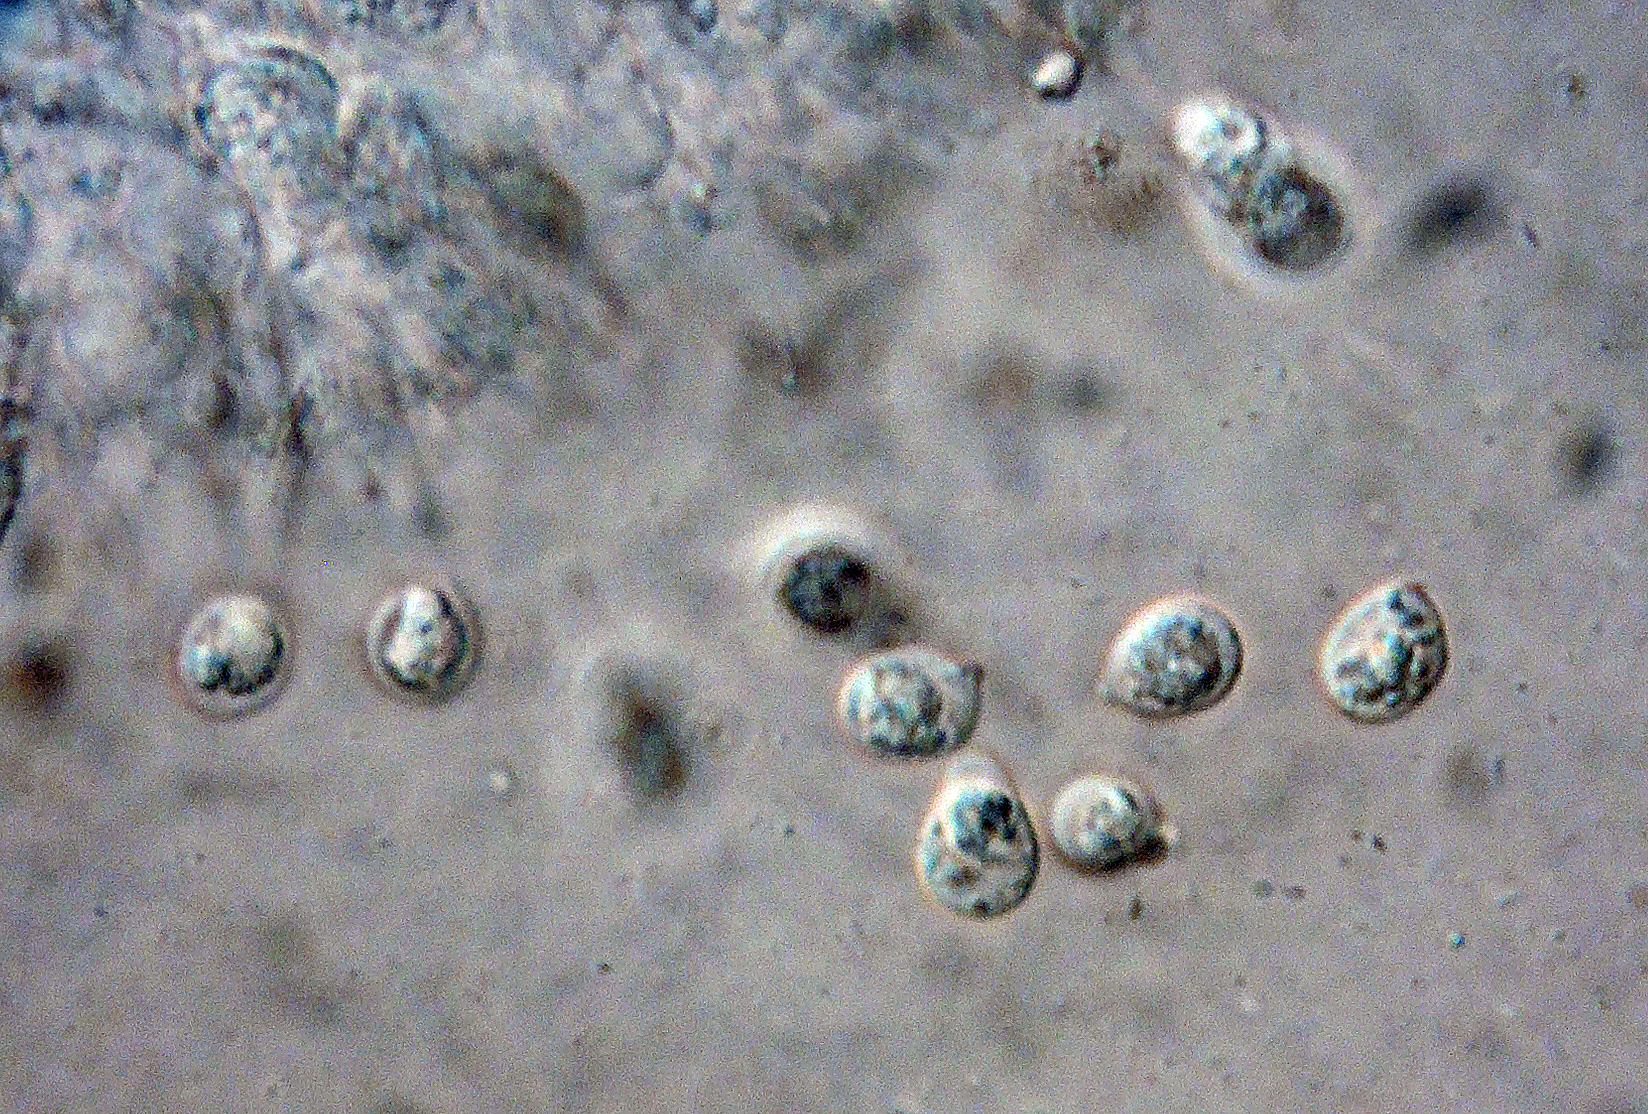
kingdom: Fungi
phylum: Basidiomycota
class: Agaricomycetes
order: Auriculariales
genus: Stypella
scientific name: Stypella crystallina
